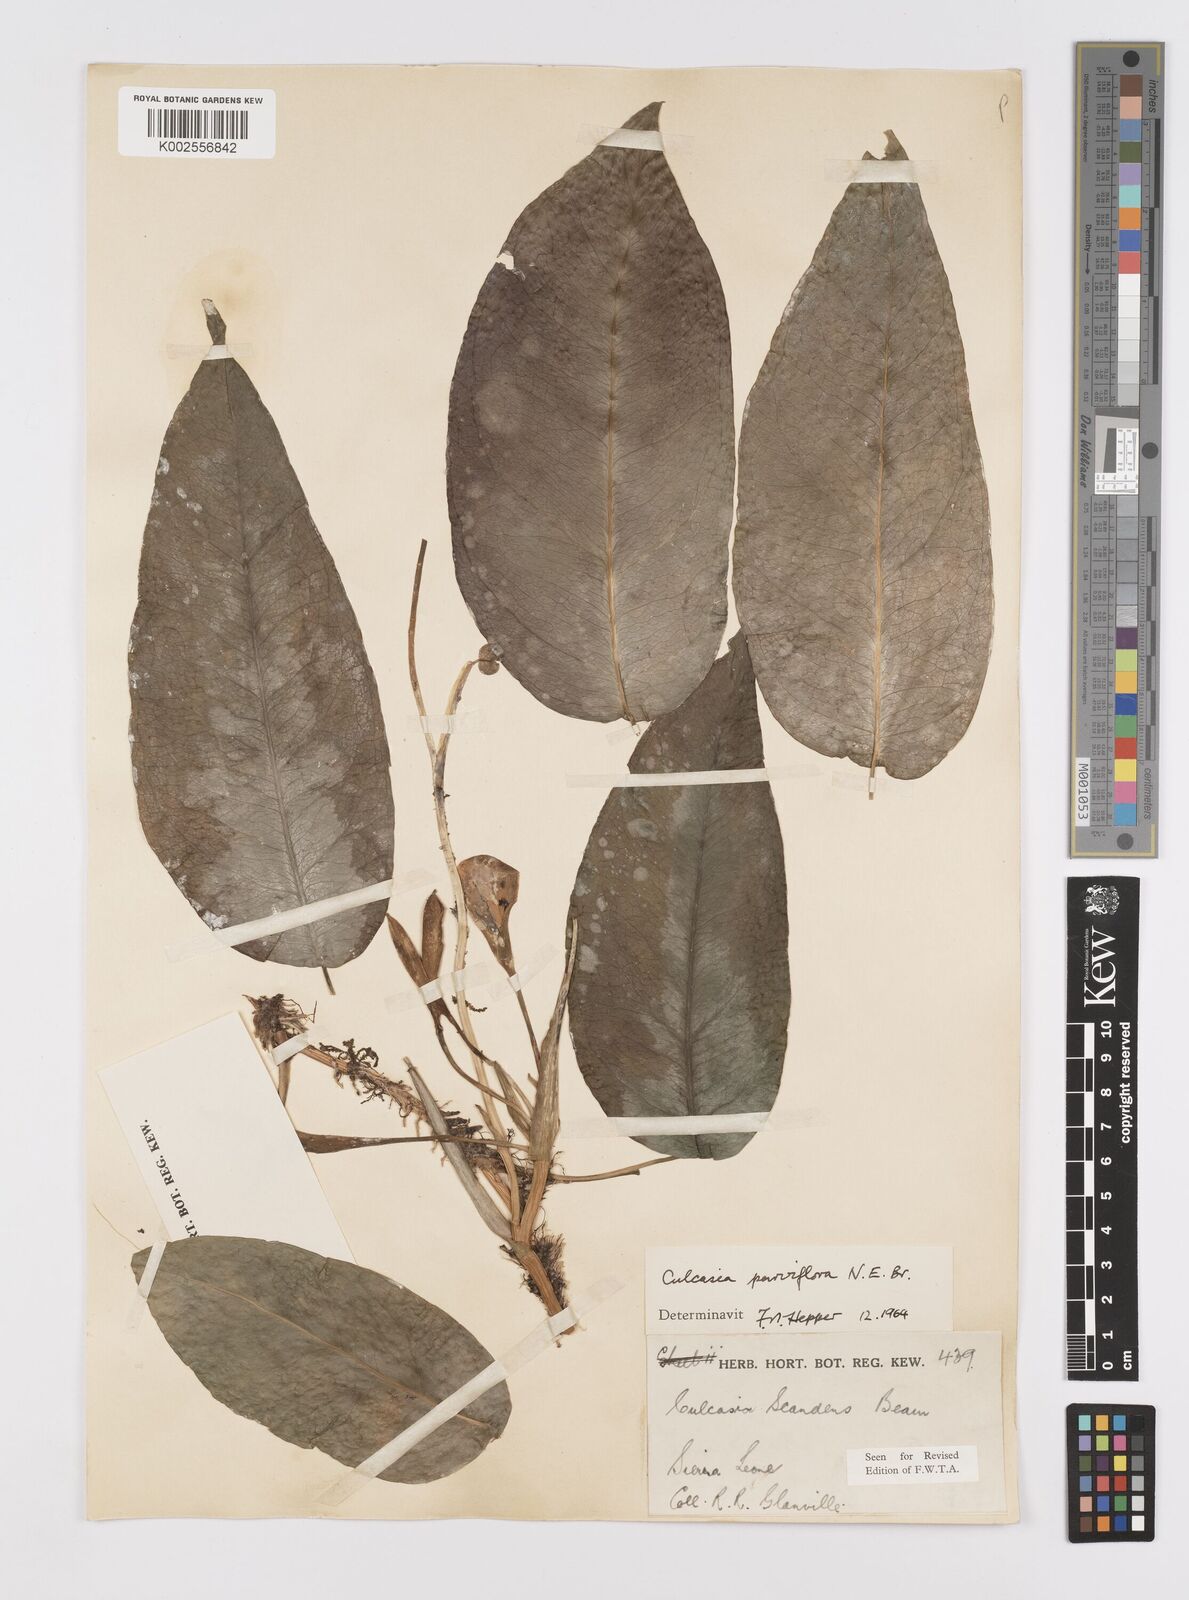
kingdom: Plantae
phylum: Tracheophyta
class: Liliopsida
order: Alismatales
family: Araceae
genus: Culcasia
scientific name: Culcasia parviflora
